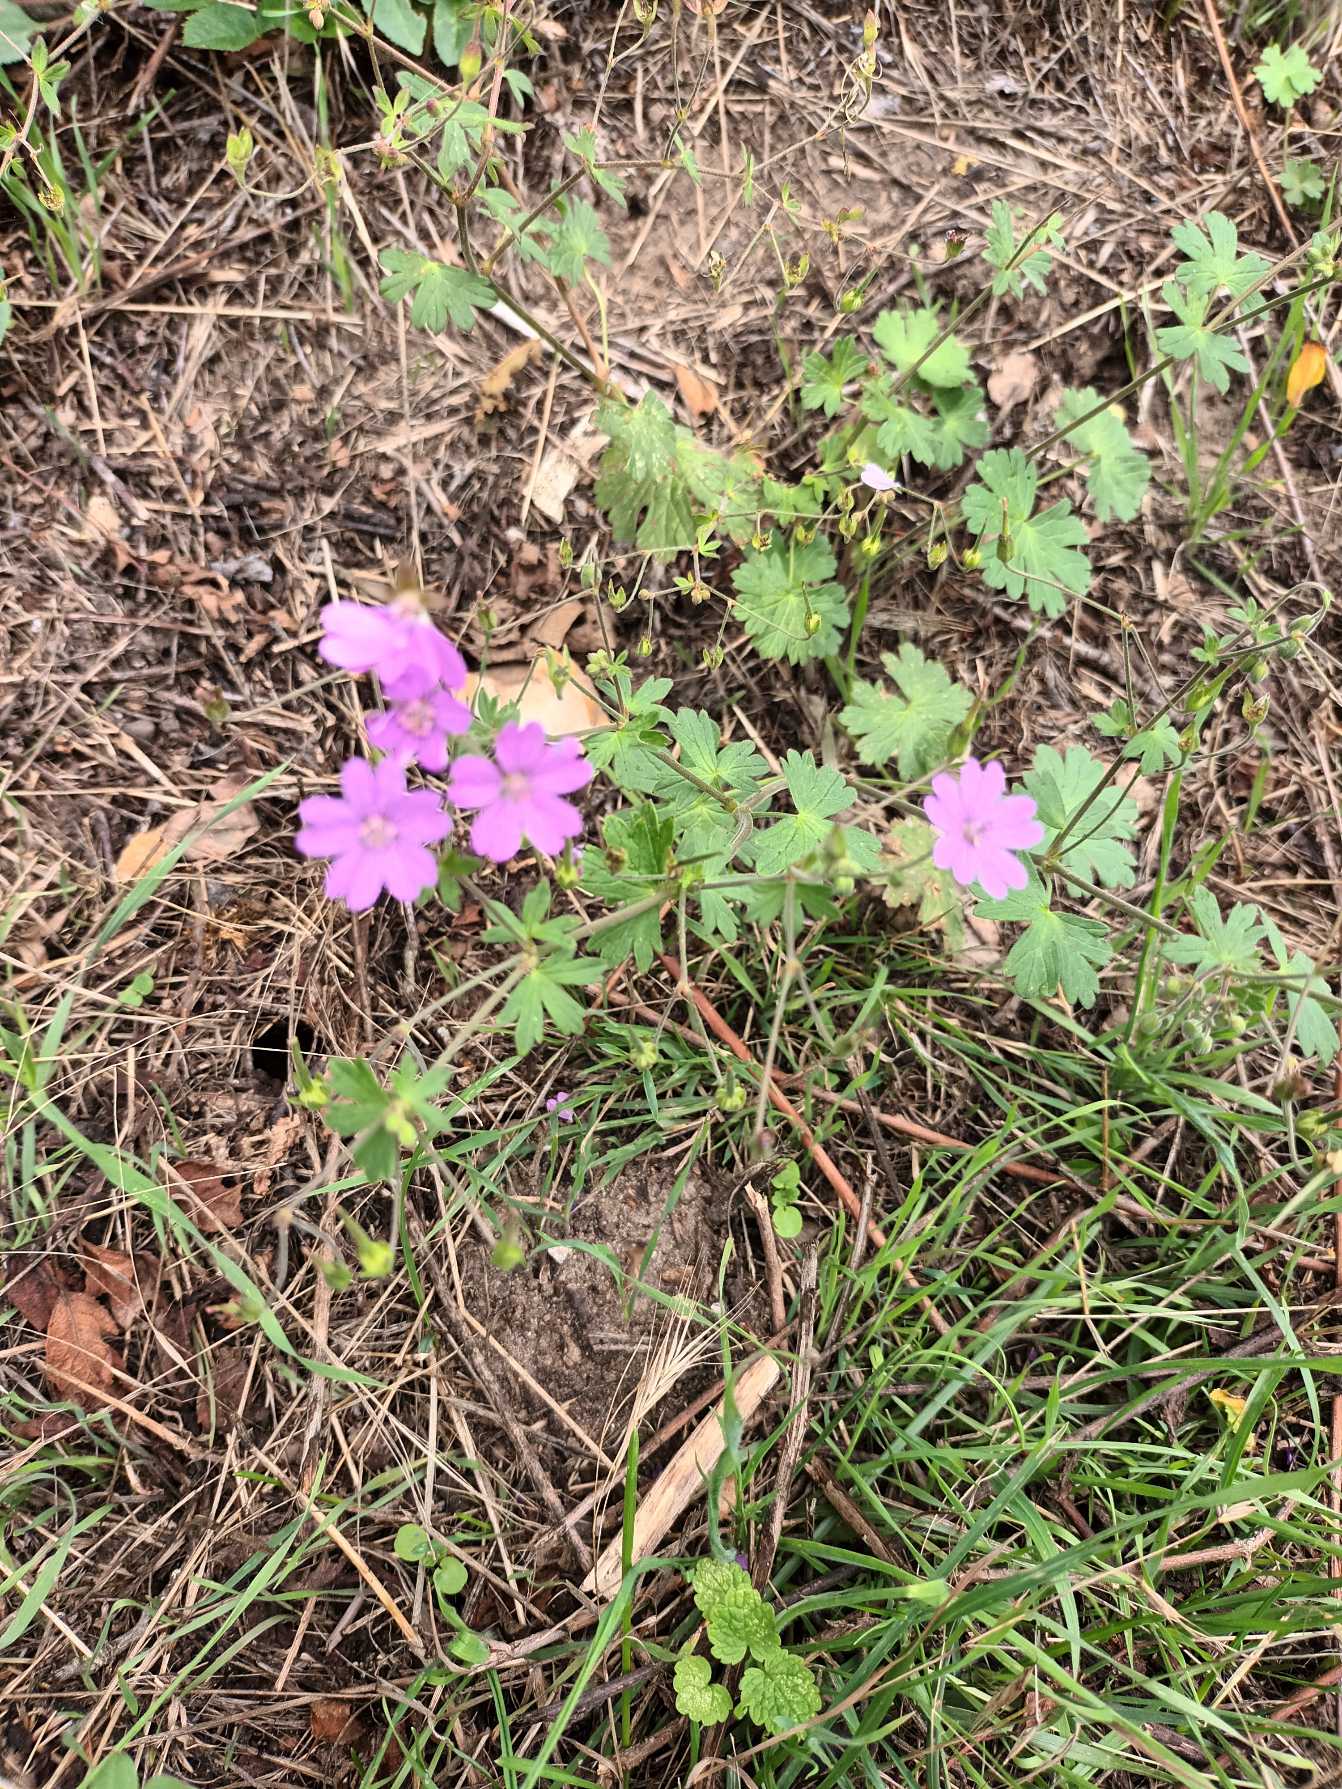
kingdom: Plantae
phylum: Tracheophyta
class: Magnoliopsida
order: Geraniales
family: Geraniaceae
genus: Geranium
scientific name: Geranium pyrenaicum
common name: Pyrenæisk storkenæb
